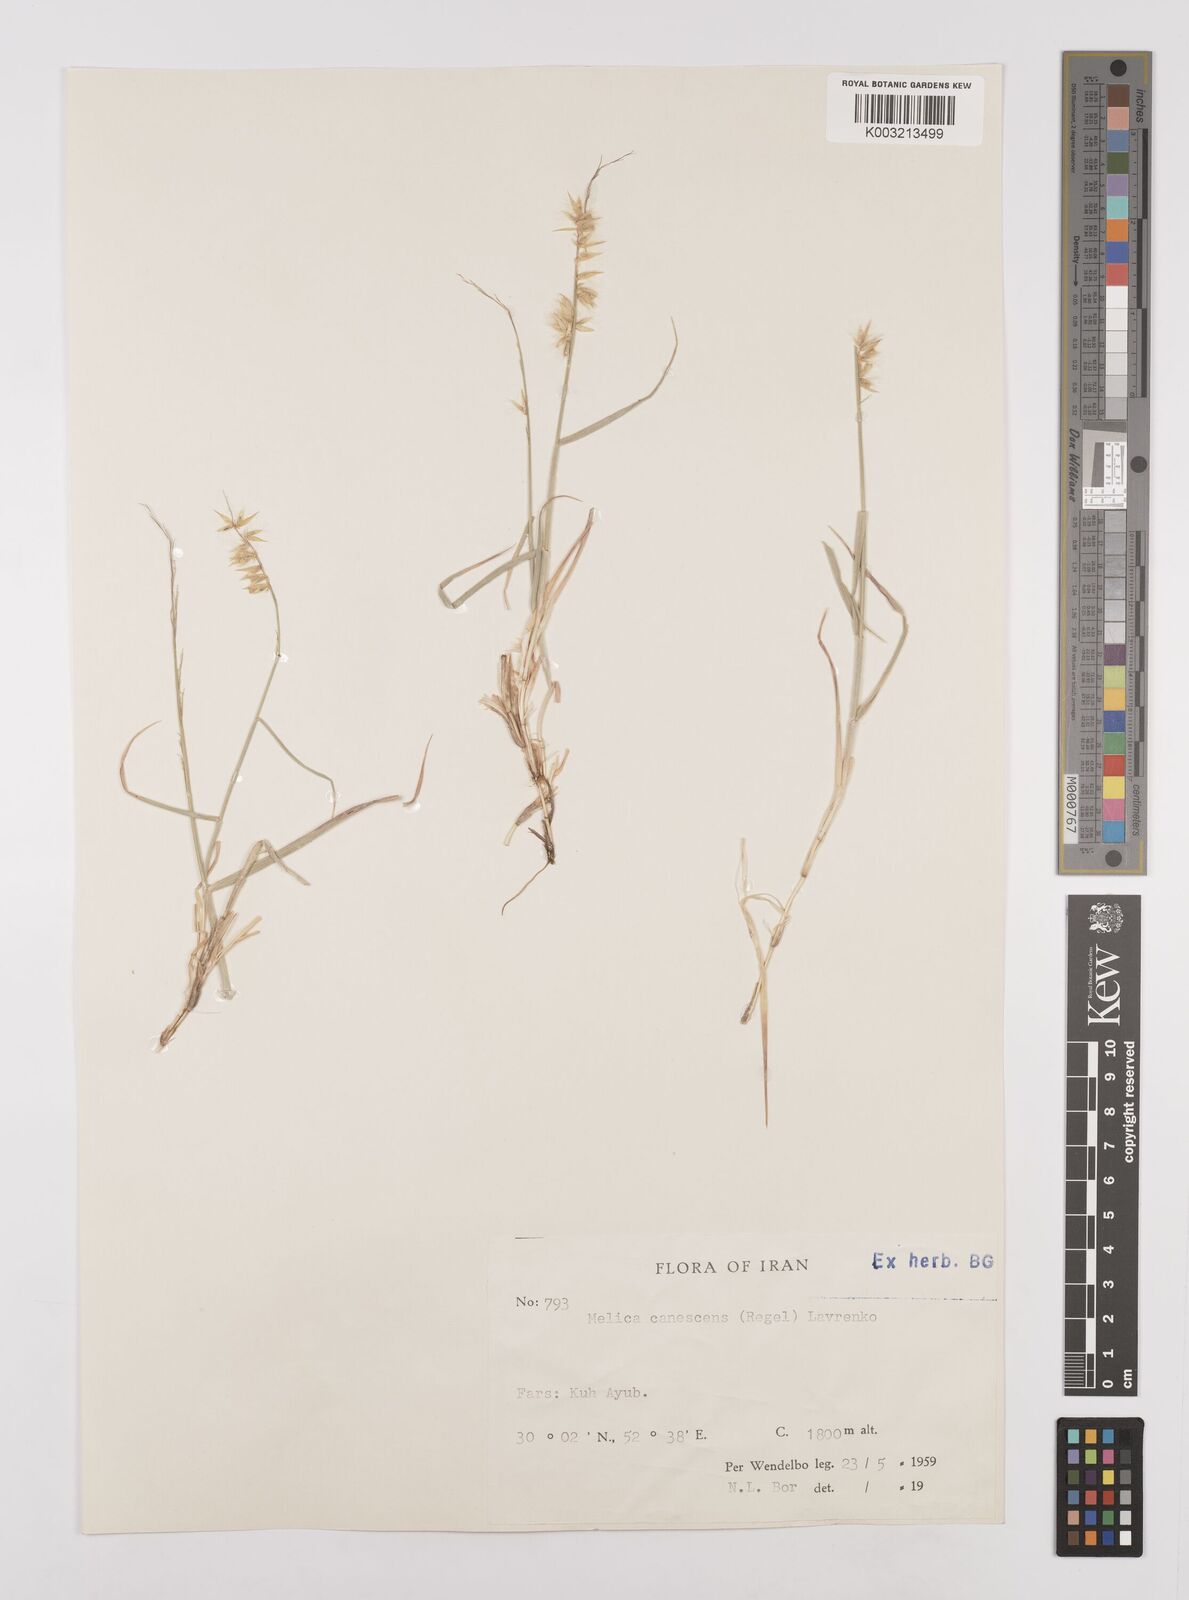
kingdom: Plantae
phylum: Tracheophyta
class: Liliopsida
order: Poales
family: Poaceae
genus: Melica
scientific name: Melica persica
